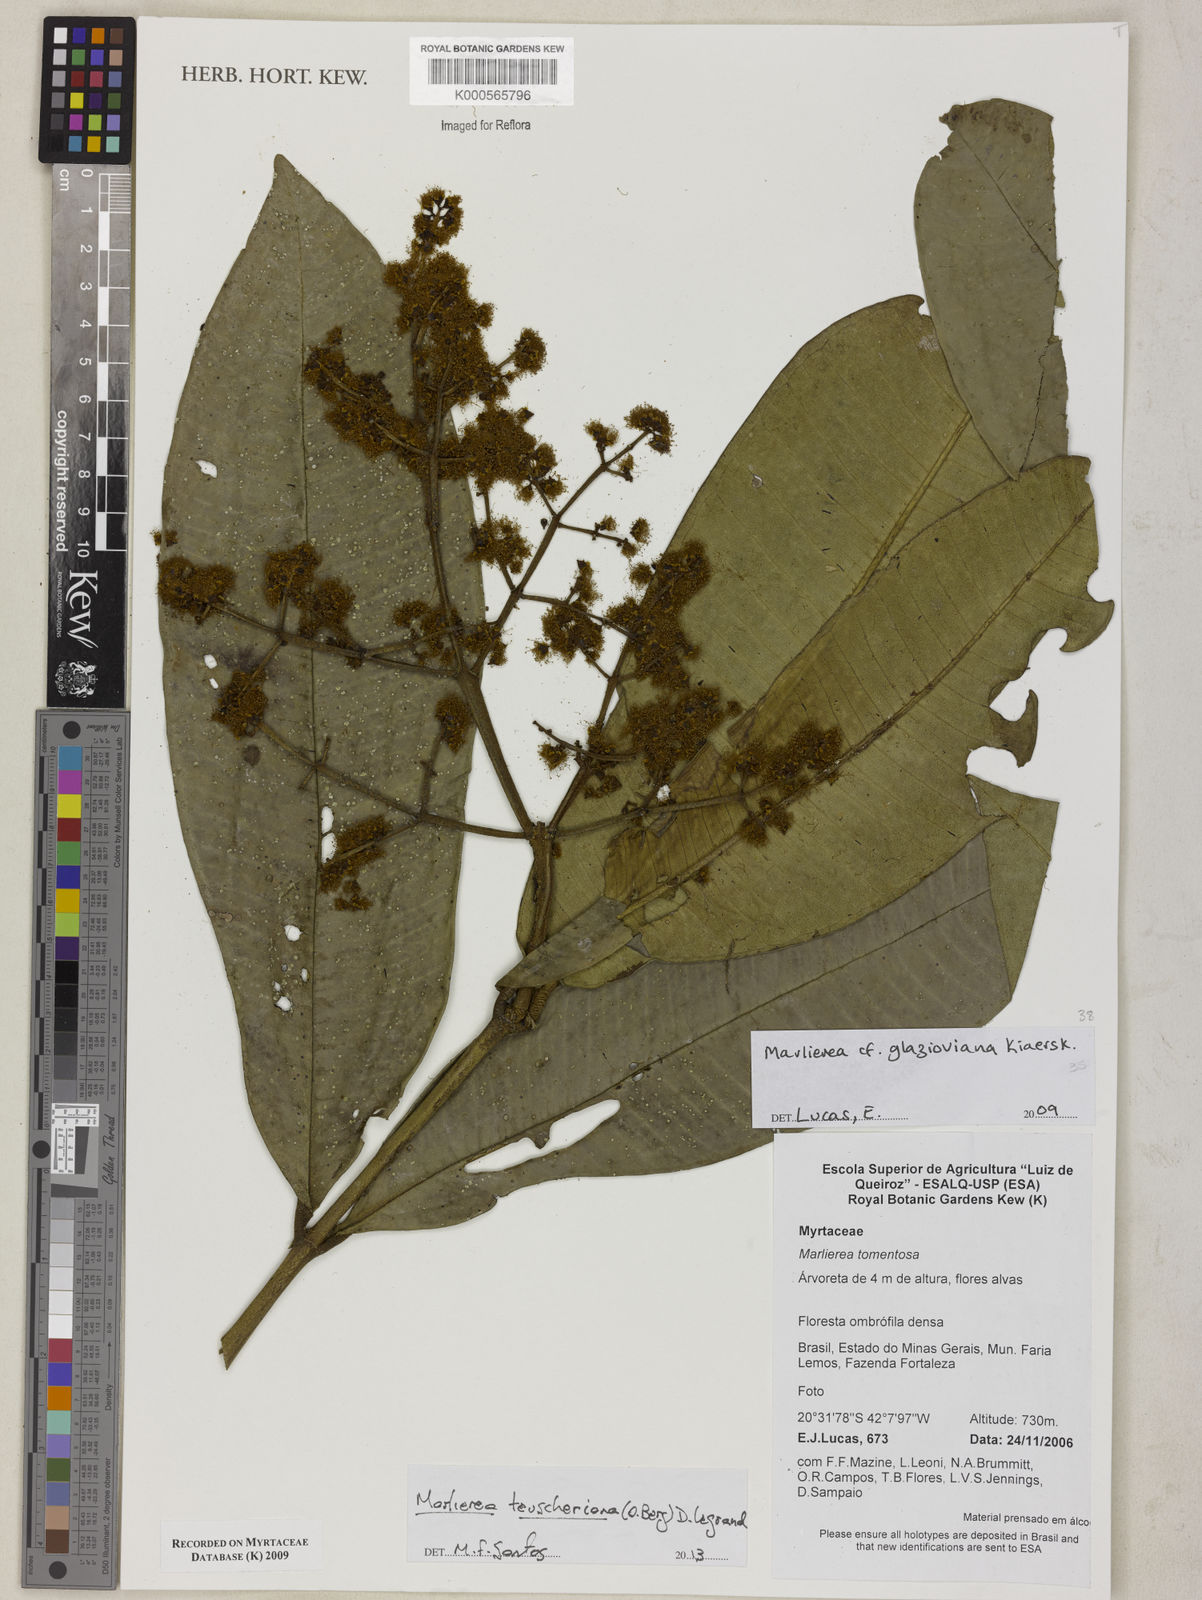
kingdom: Plantae
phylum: Tracheophyta
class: Magnoliopsida
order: Myrtales
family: Myrtaceae
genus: Myrcia
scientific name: Myrcia insigniflora
